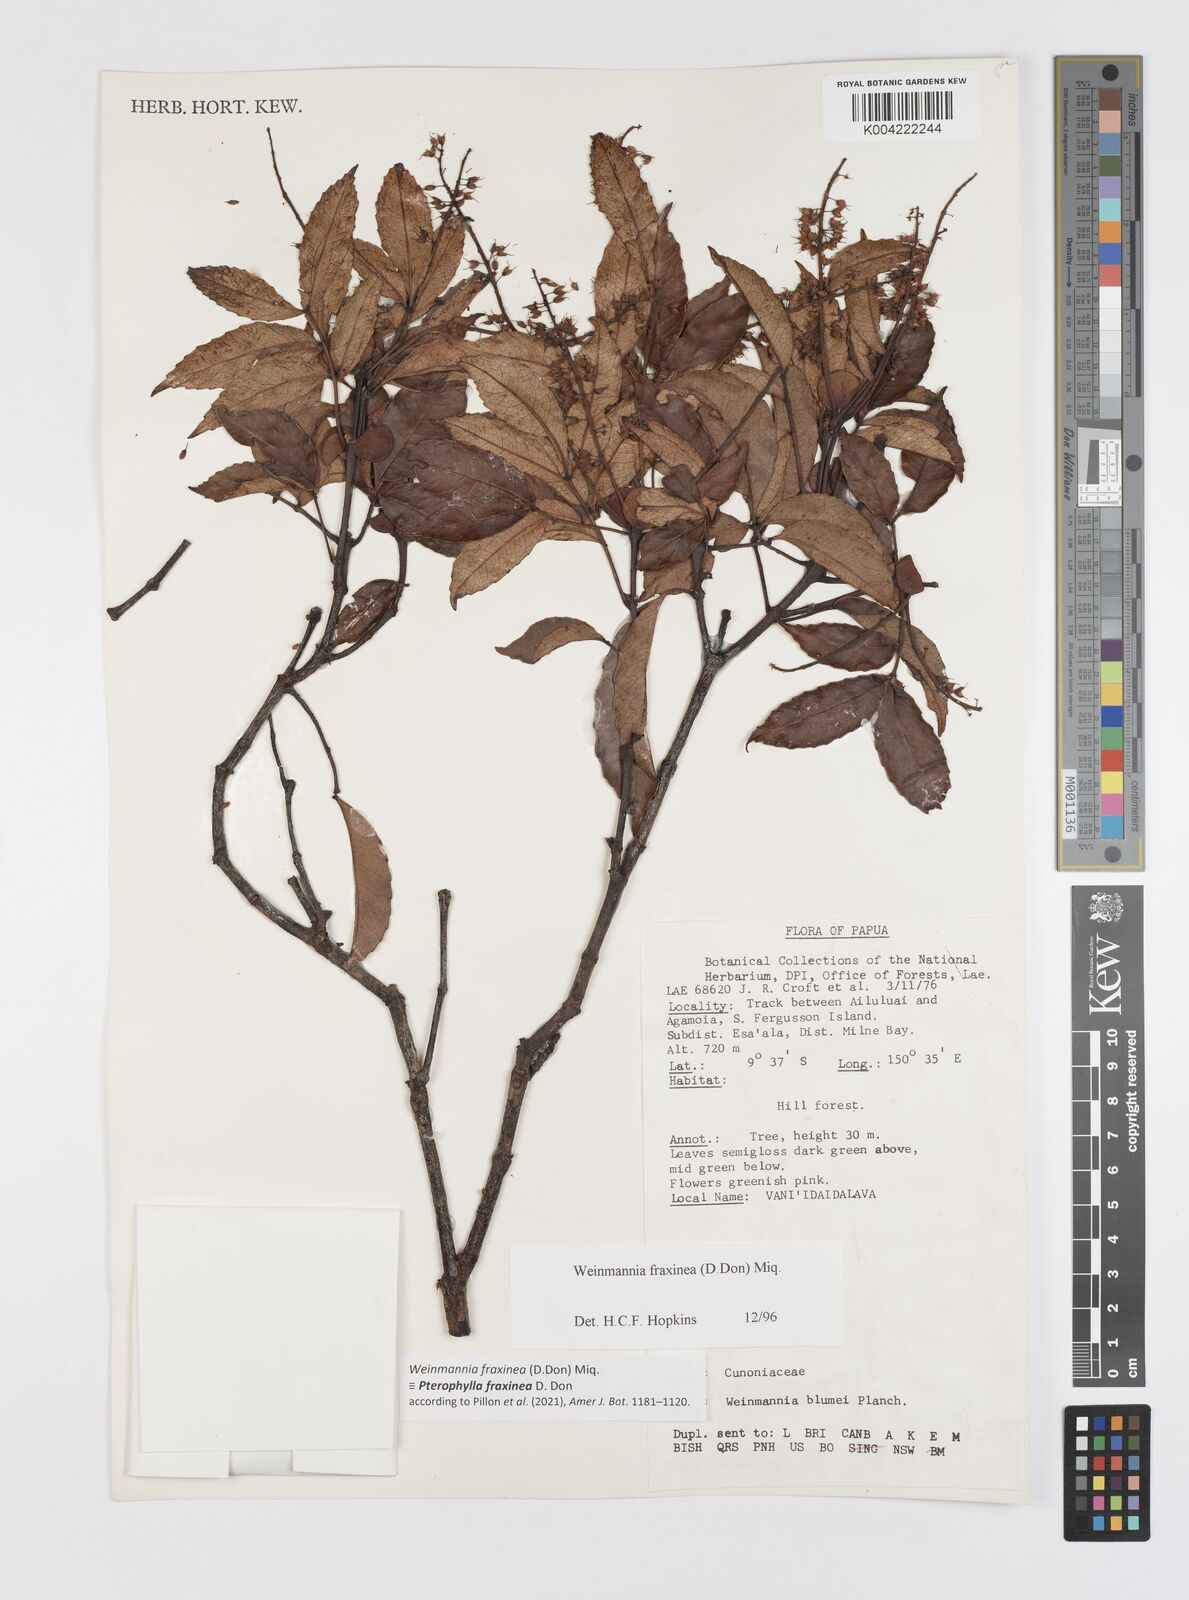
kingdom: Plantae
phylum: Tracheophyta
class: Magnoliopsida
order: Oxalidales
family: Cunoniaceae
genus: Pterophylla
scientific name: Pterophylla fraxinea
